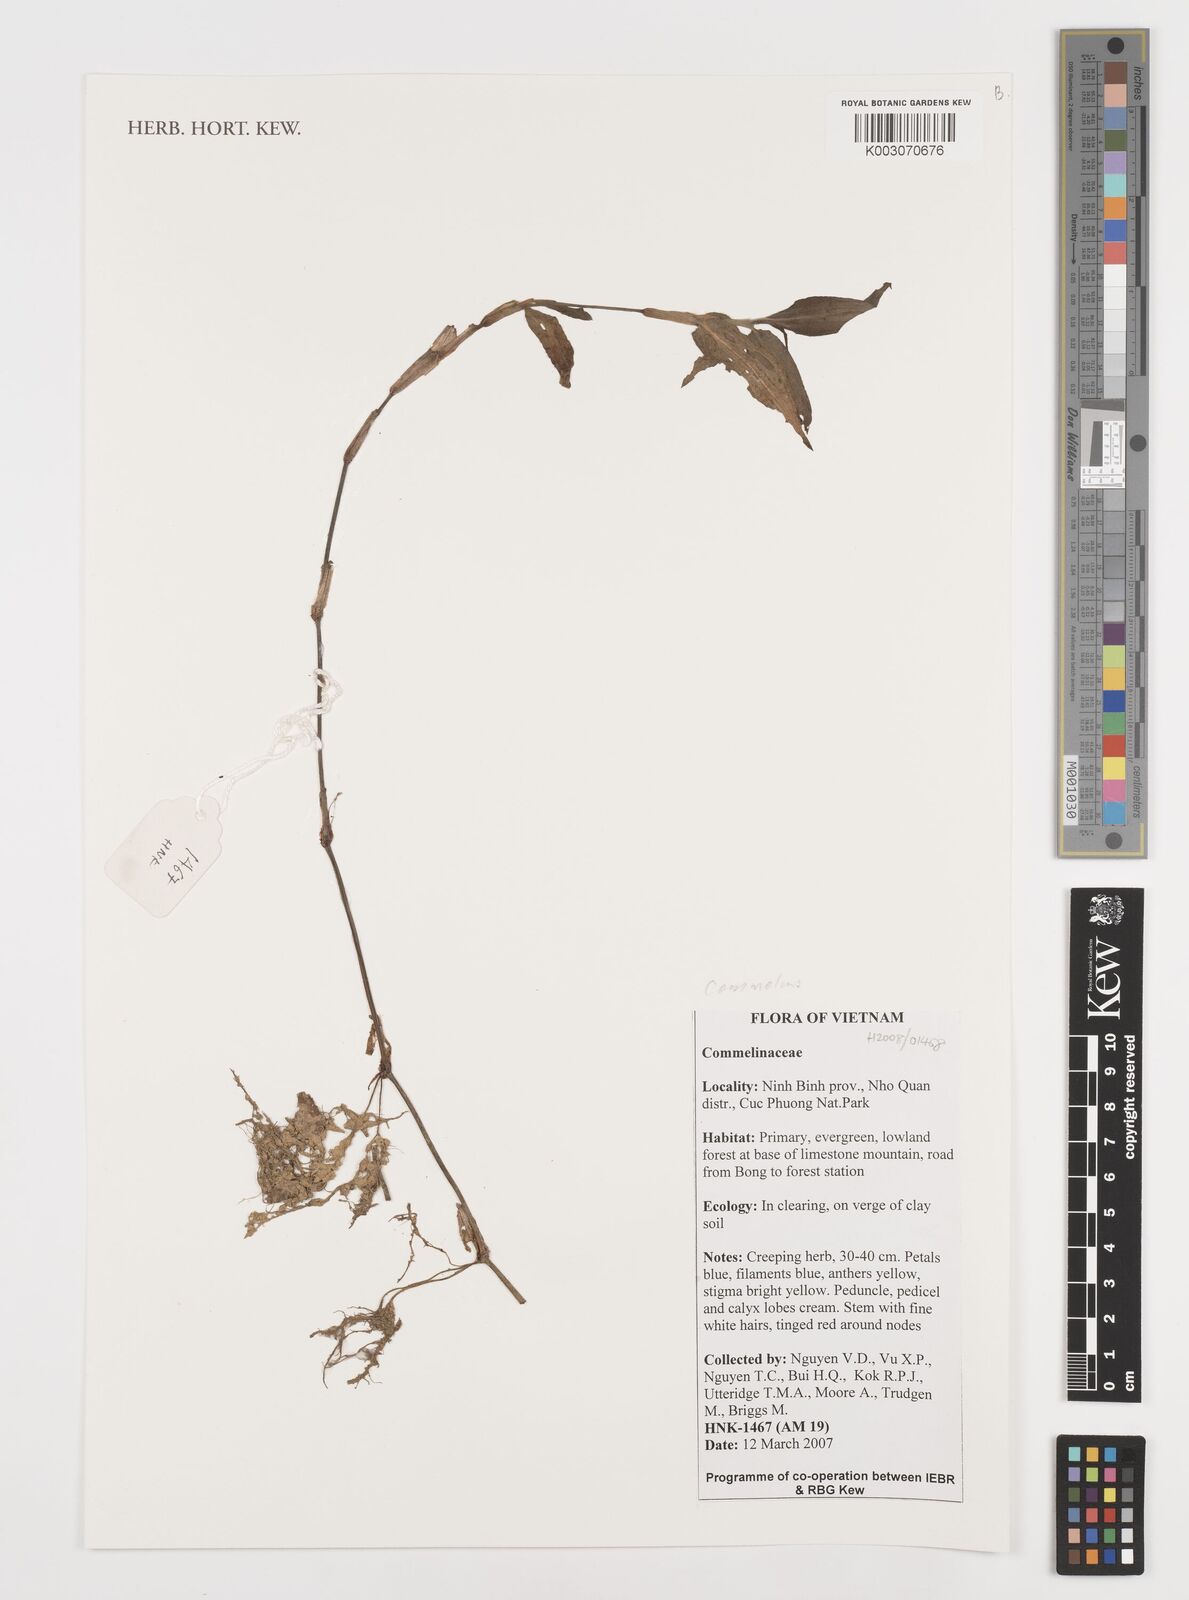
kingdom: Plantae
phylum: Tracheophyta
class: Liliopsida
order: Commelinales
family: Commelinaceae
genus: Commelina
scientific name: Commelina
